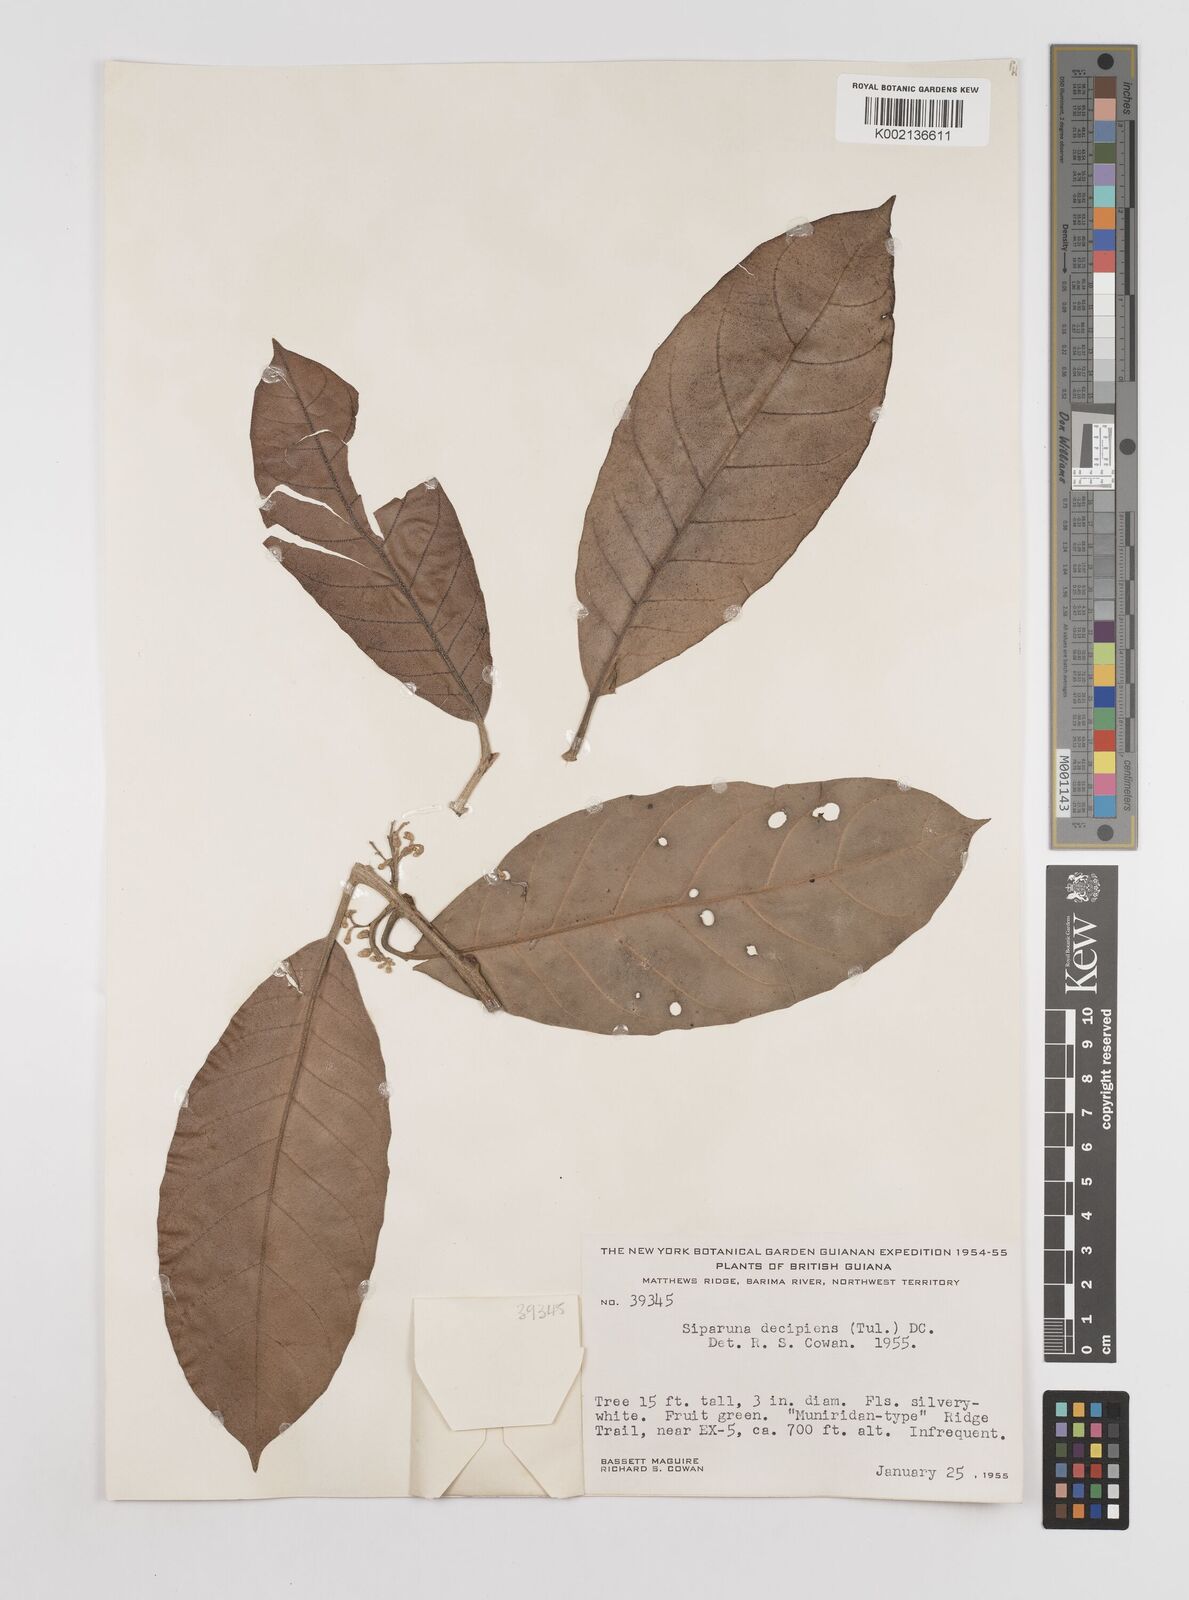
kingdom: Plantae
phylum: Tracheophyta
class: Magnoliopsida
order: Laurales
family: Siparunaceae
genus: Siparuna
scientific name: Siparuna decipiens
